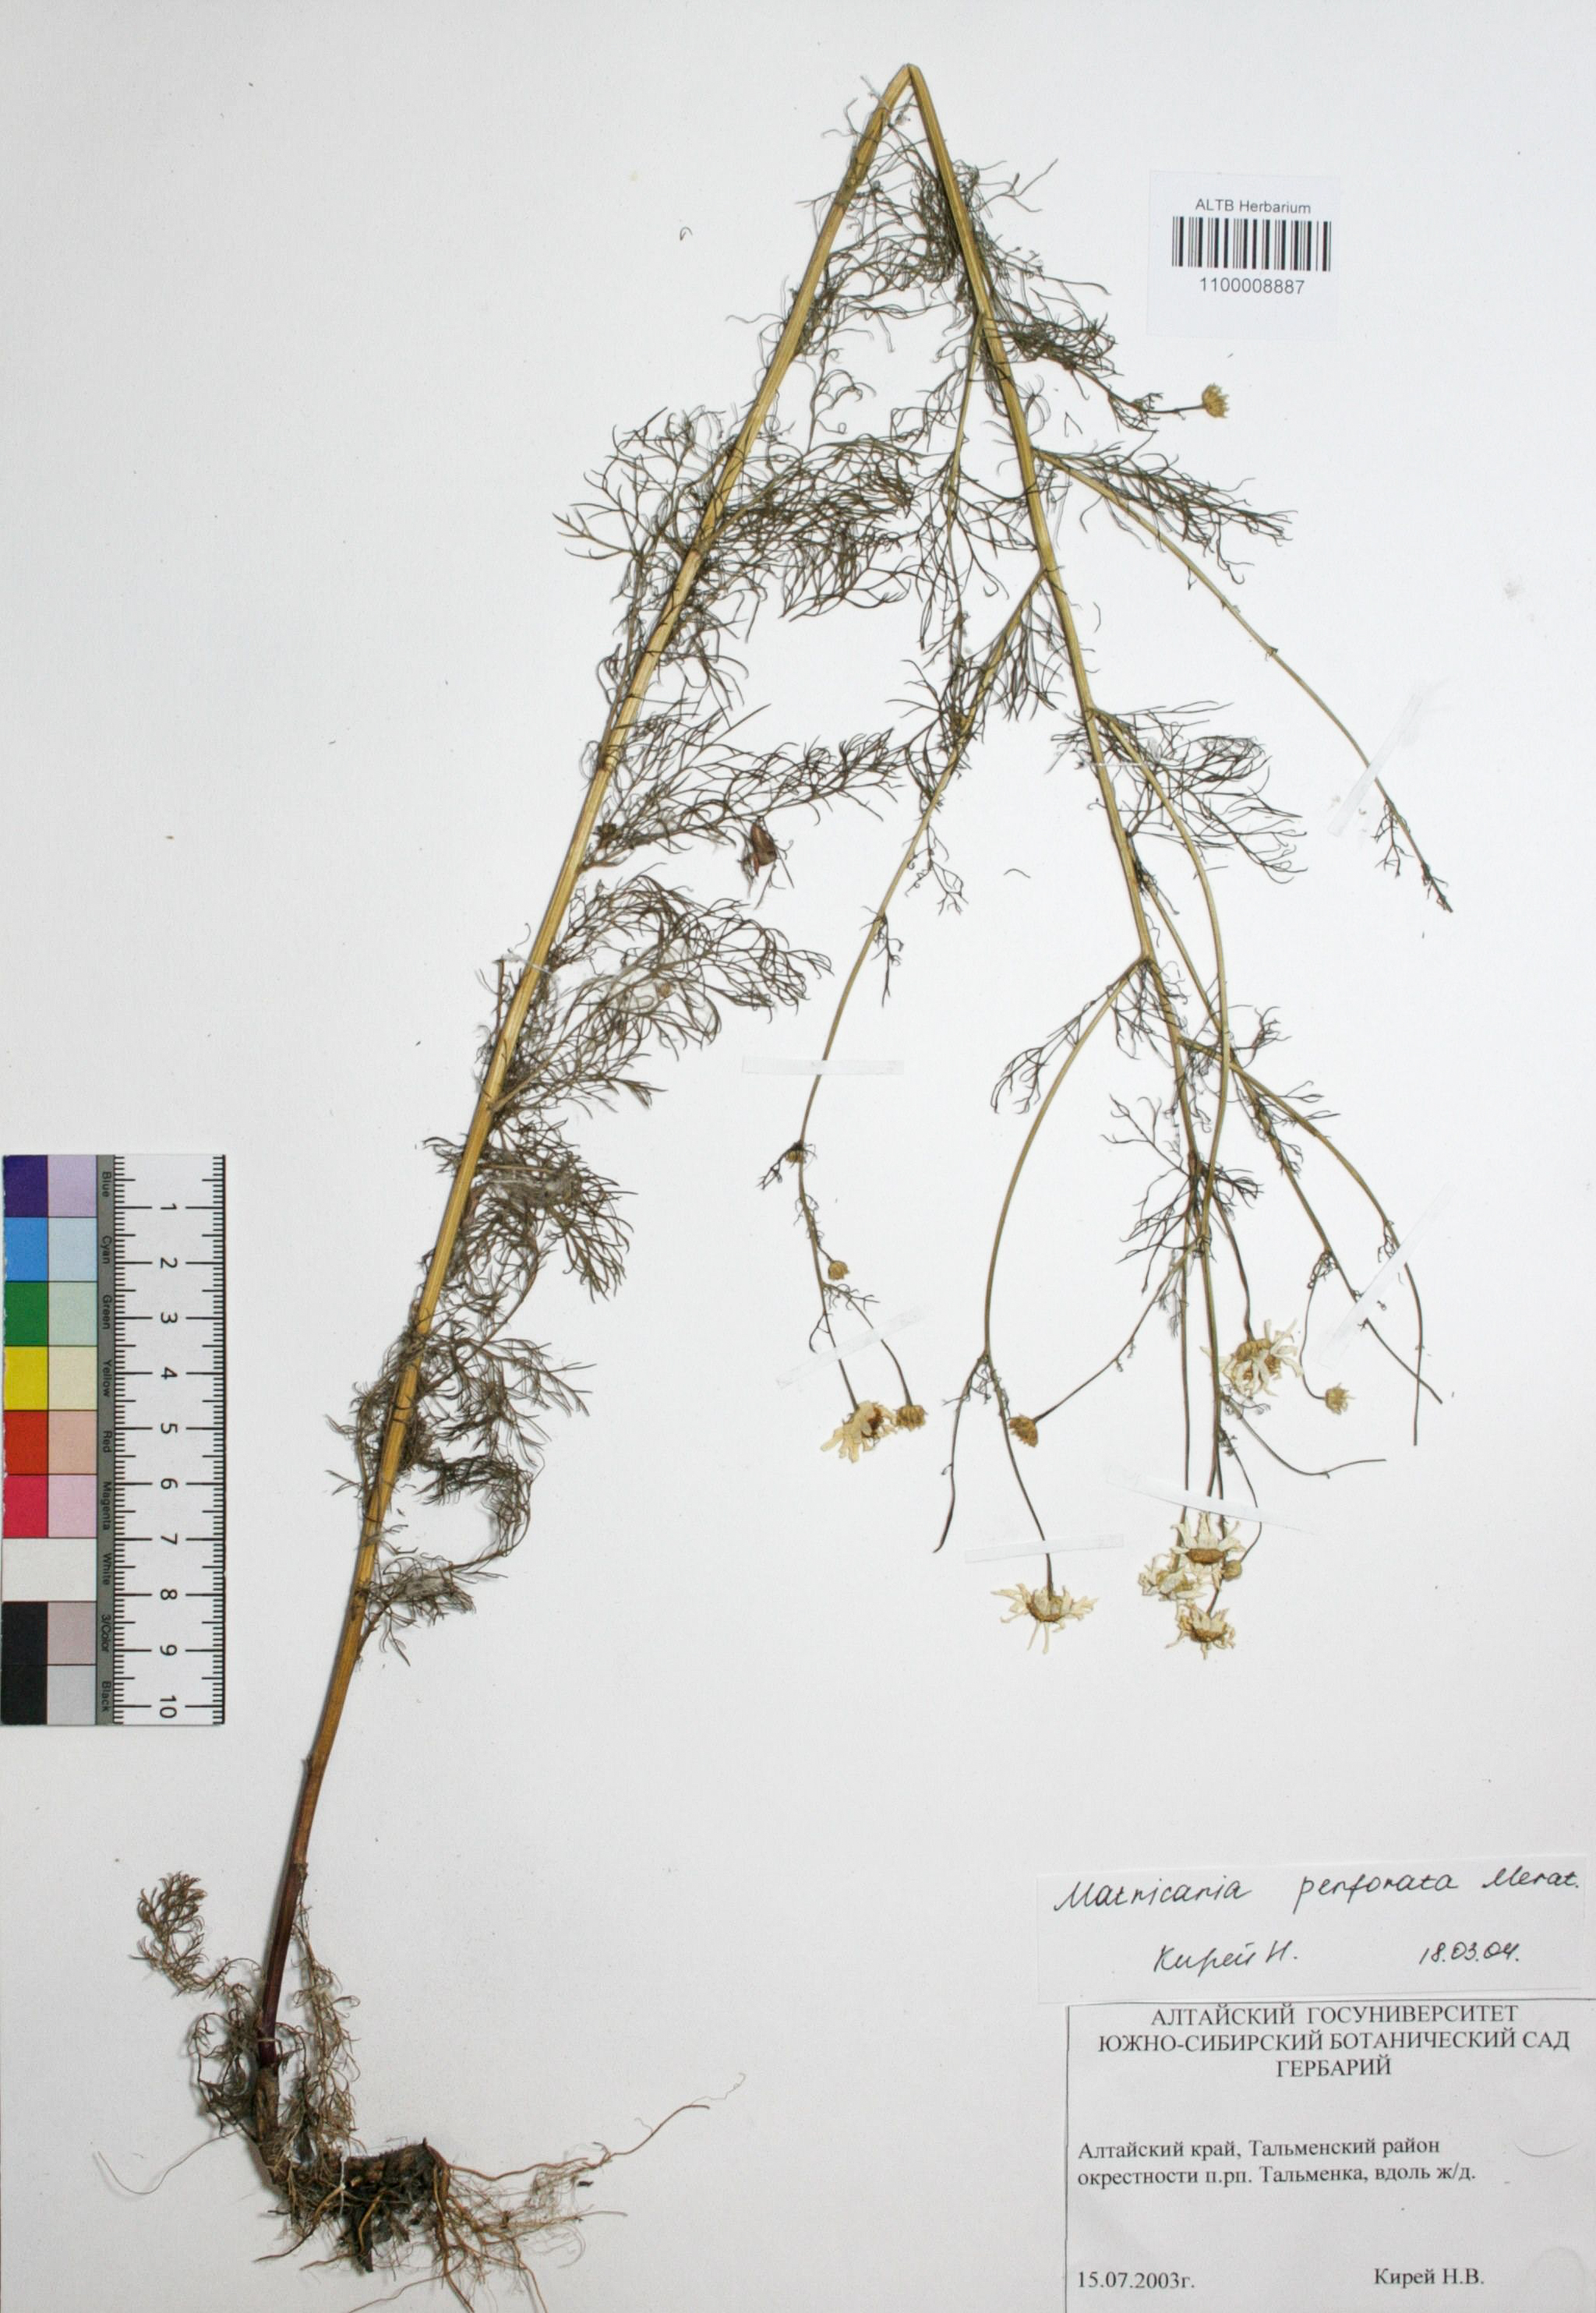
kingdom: Plantae
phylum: Tracheophyta
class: Magnoliopsida
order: Asterales
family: Asteraceae
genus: Tripleurospermum
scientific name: Tripleurospermum inodorum
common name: Scentless mayweed
